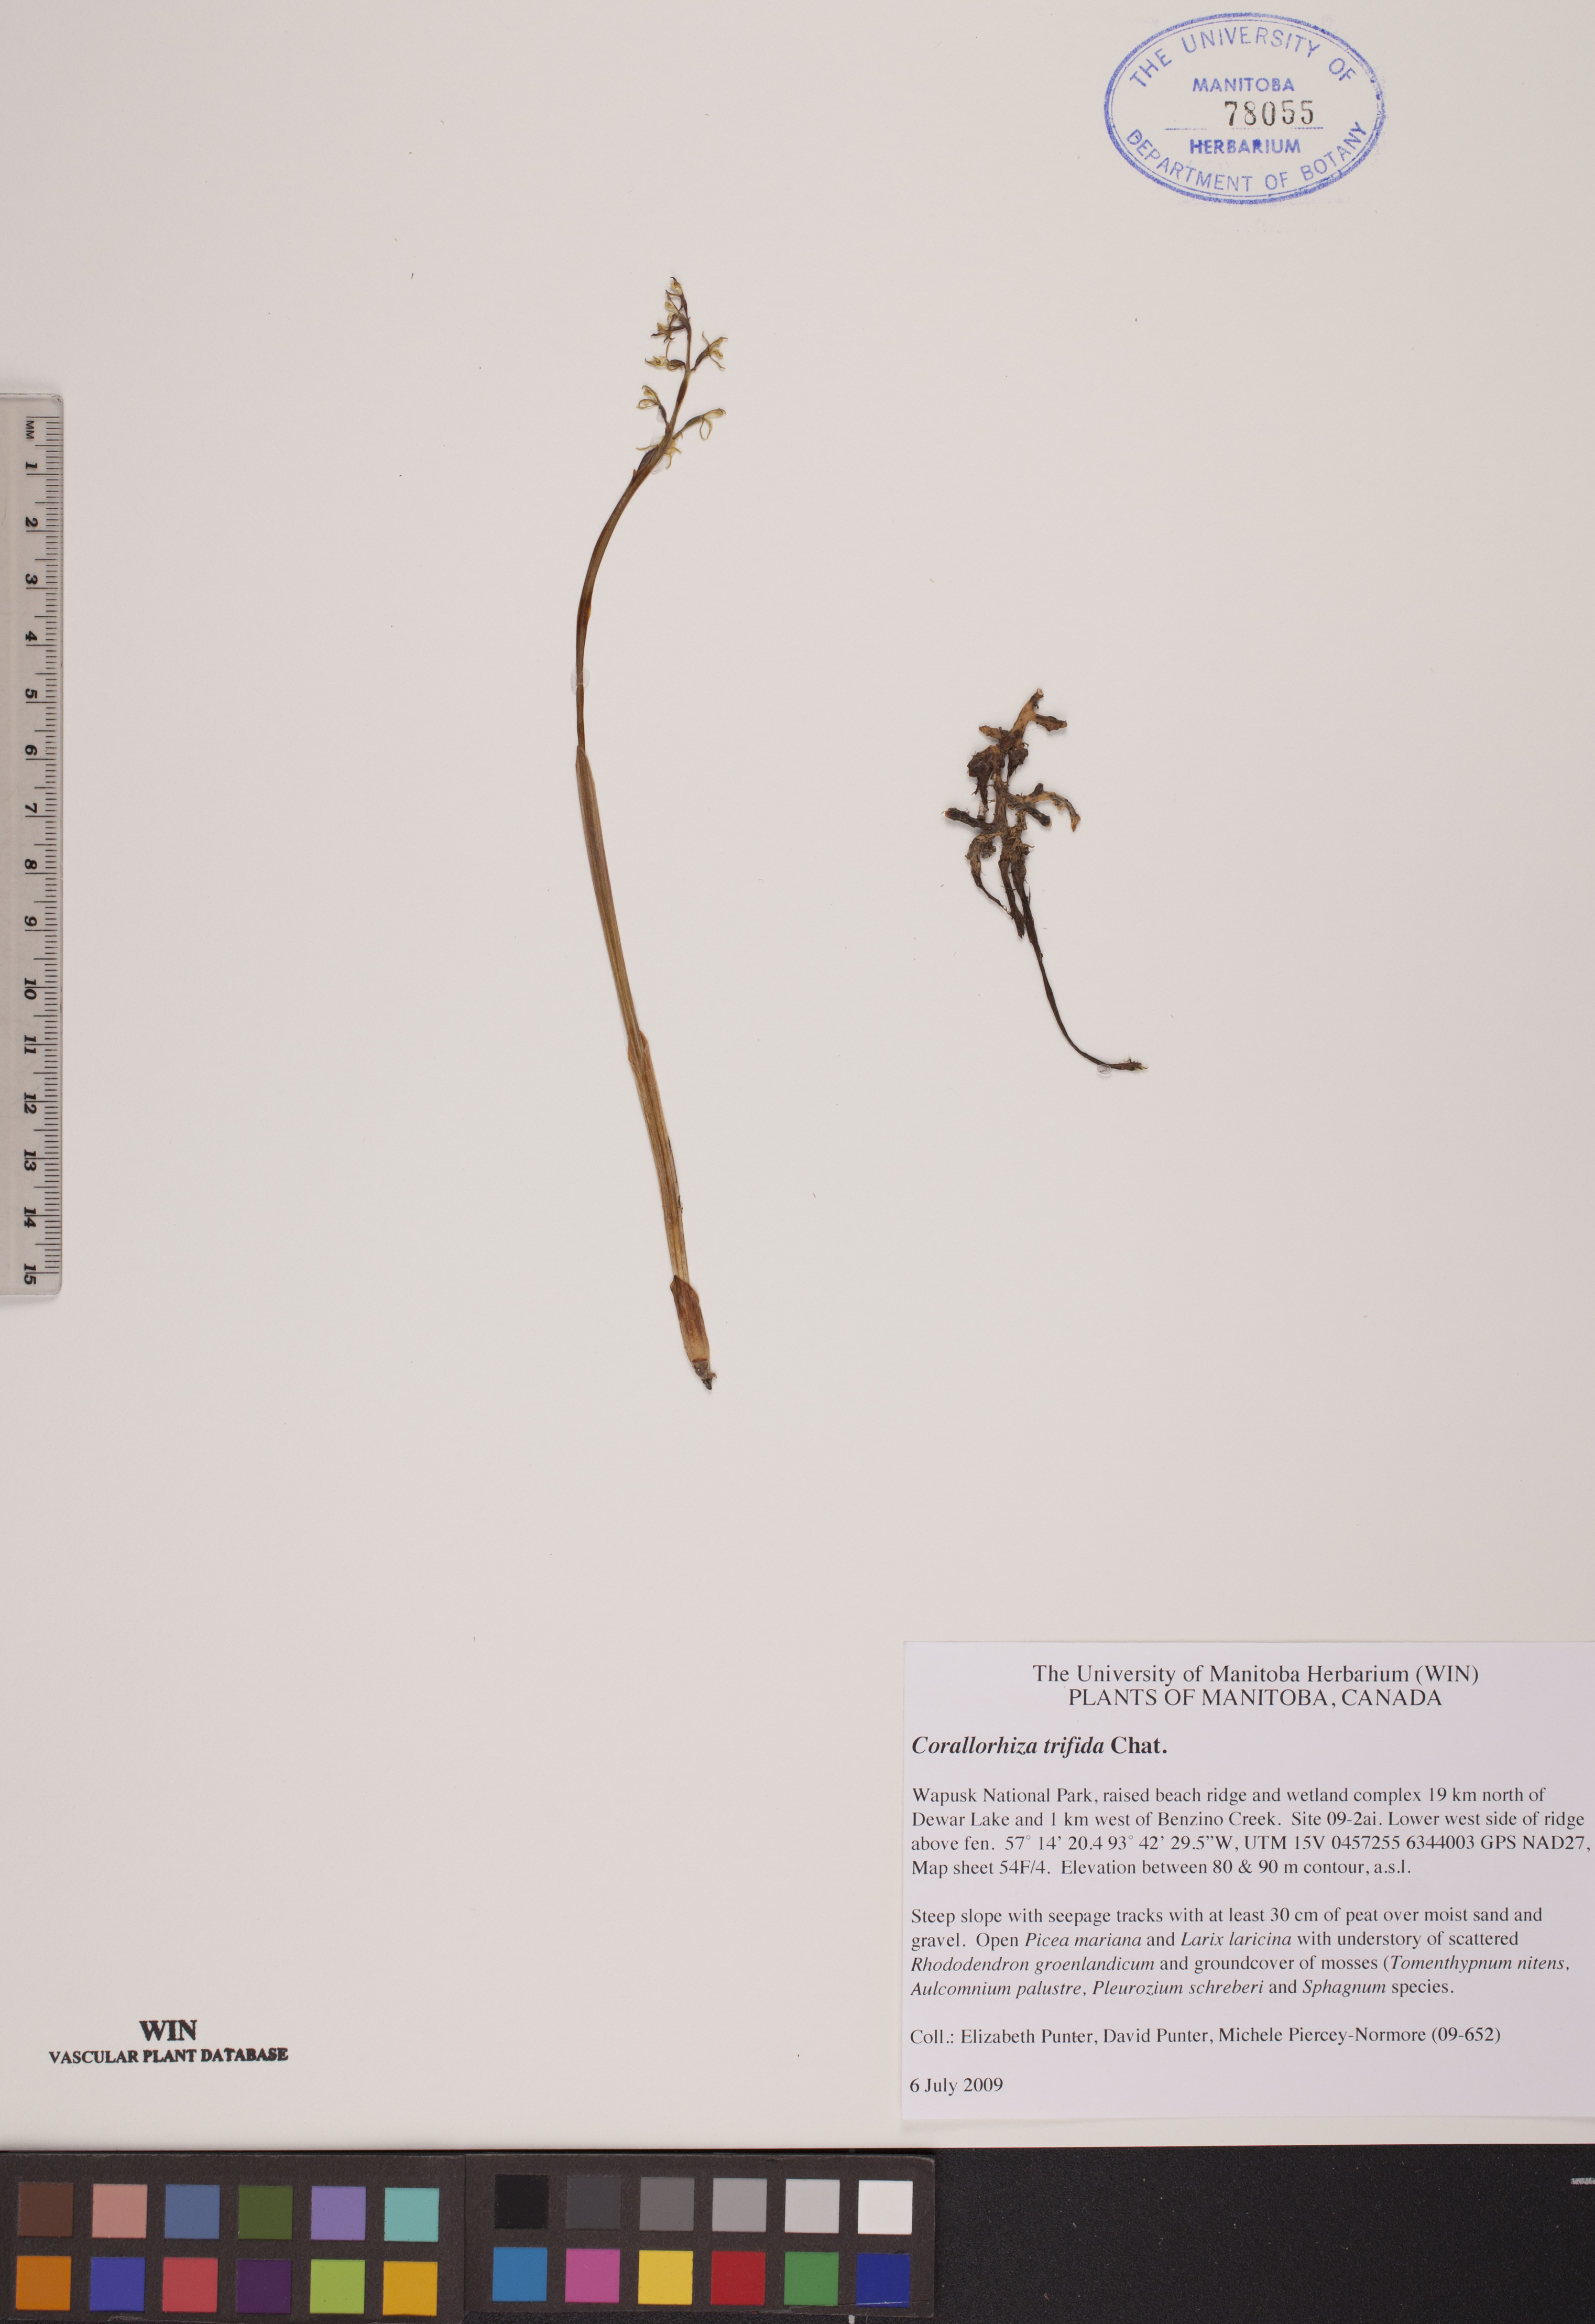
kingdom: Plantae
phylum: Tracheophyta
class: Liliopsida
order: Asparagales
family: Orchidaceae
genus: Corallorhiza
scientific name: Corallorhiza trifida
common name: Yellow coralroot
